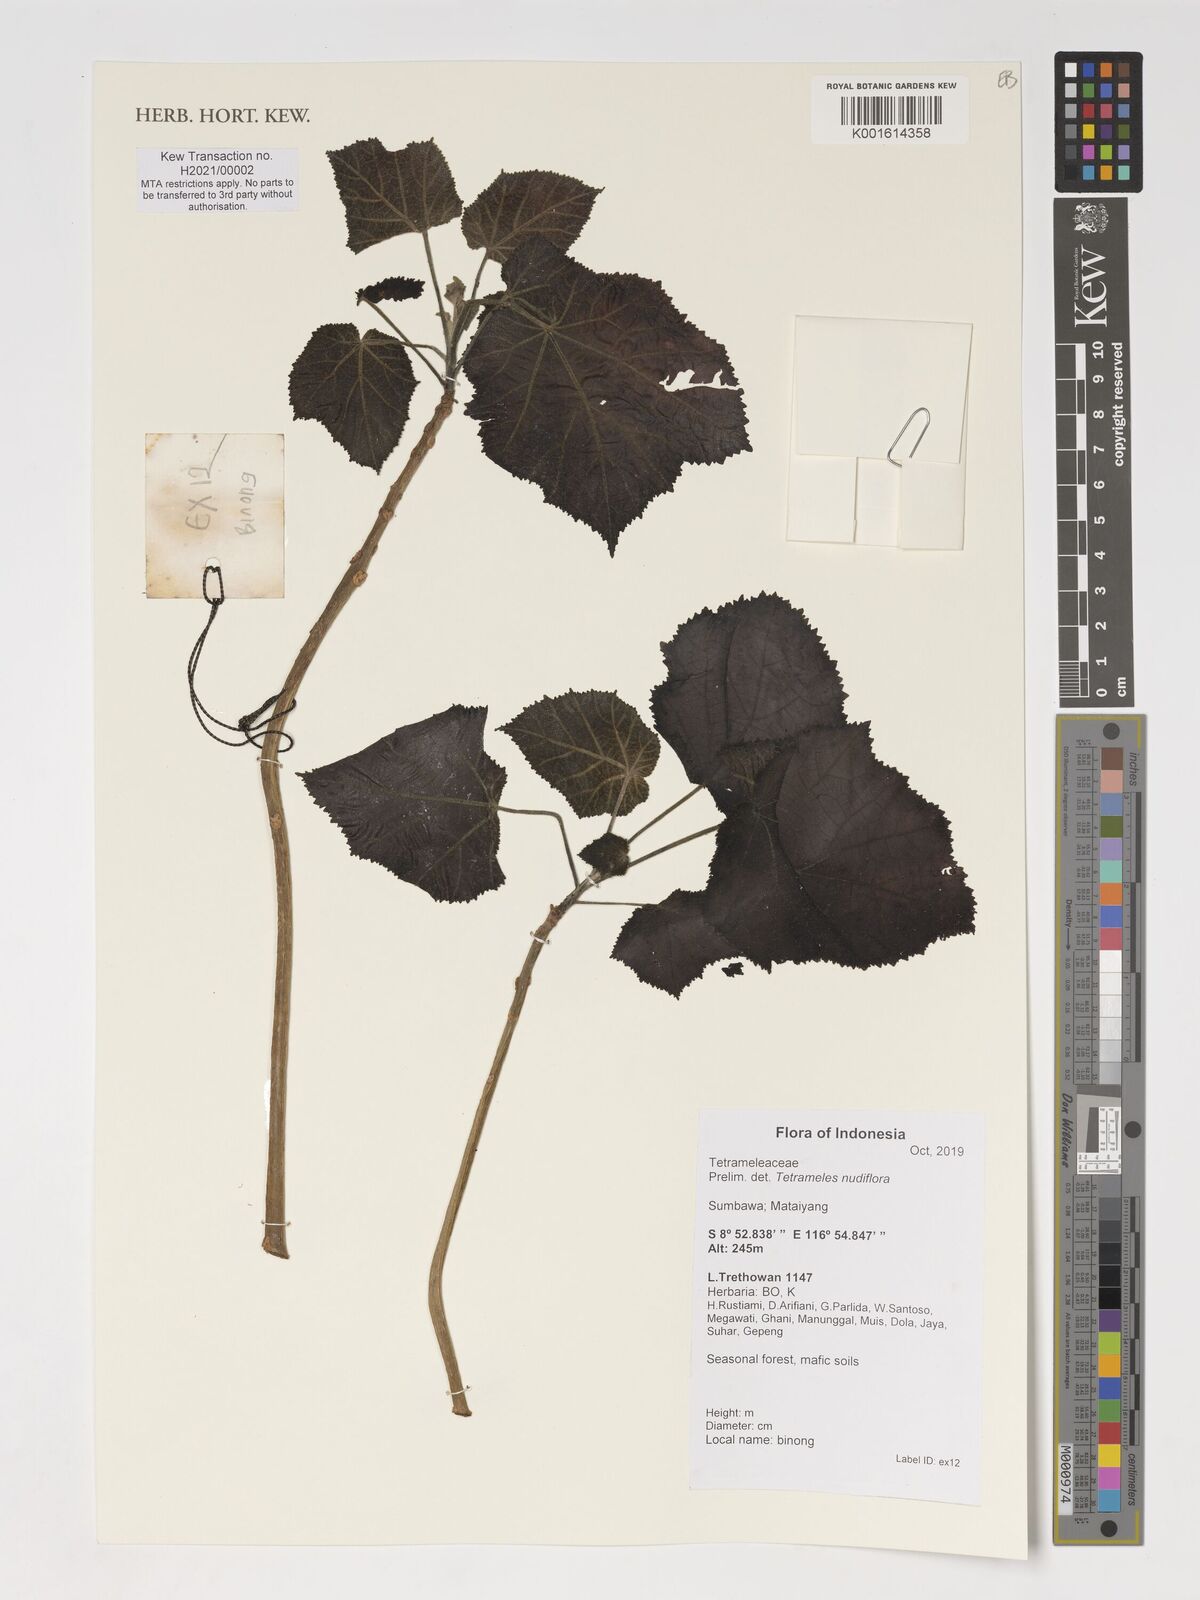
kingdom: Plantae
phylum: Tracheophyta
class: Magnoliopsida
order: Cucurbitales
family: Tetramelaceae
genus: Tetrameles
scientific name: Tetrameles nudiflora
